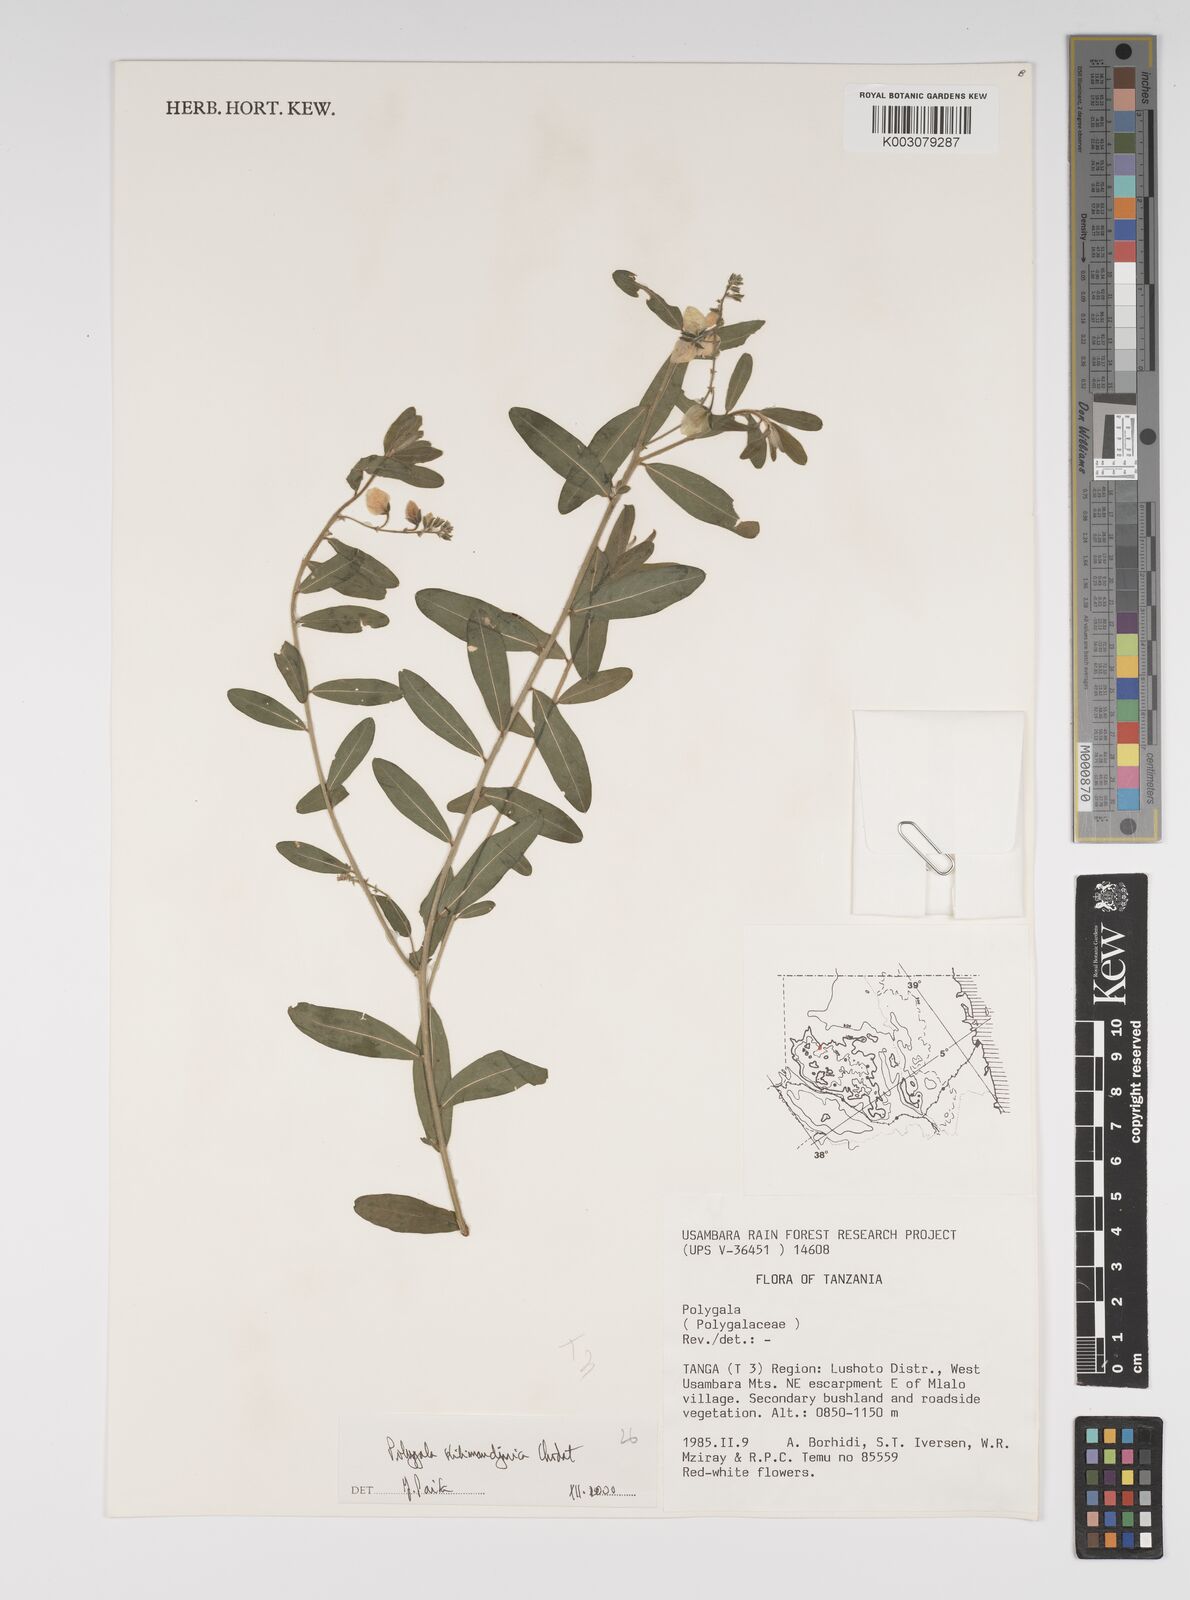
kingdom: Plantae
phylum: Tracheophyta
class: Magnoliopsida
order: Fabales
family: Polygalaceae
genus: Polygala
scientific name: Polygala kilimandjarica
